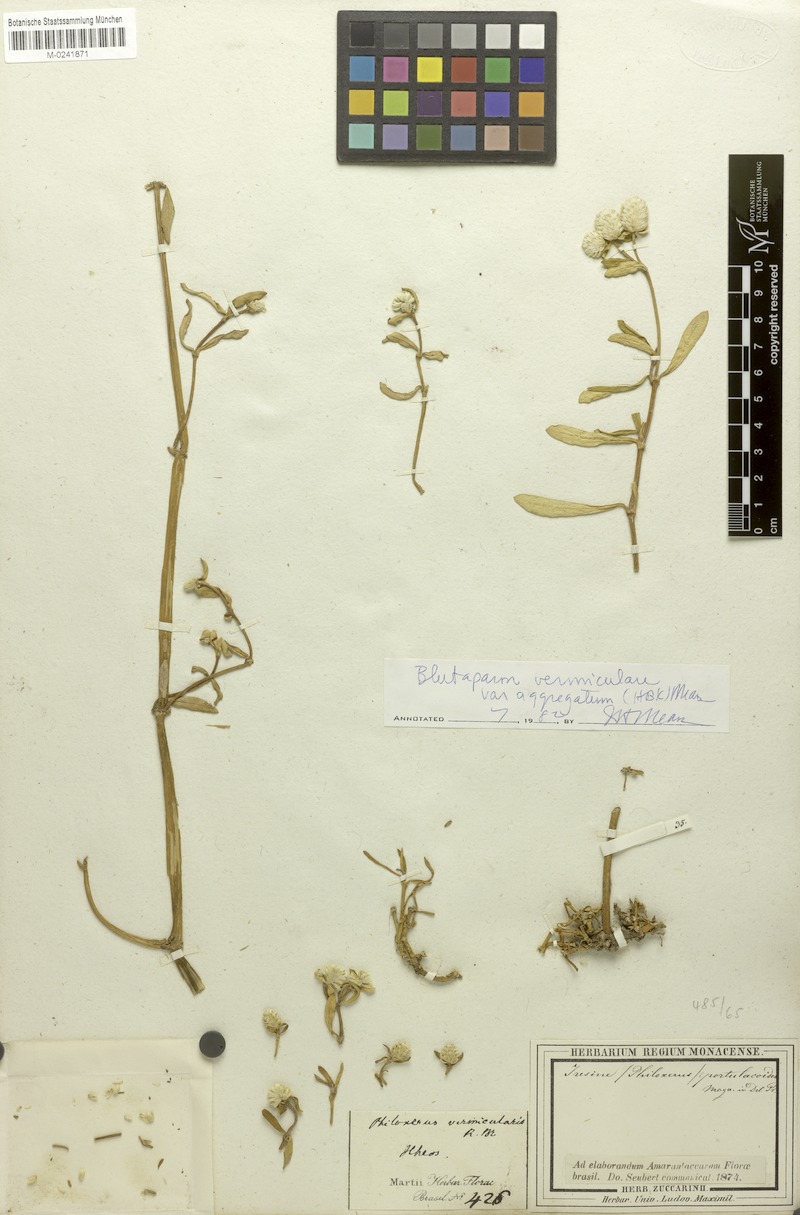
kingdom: Plantae
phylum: Tracheophyta
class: Magnoliopsida
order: Caryophyllales
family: Amaranthaceae
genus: Gomphrena
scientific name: Gomphrena vermicularis
